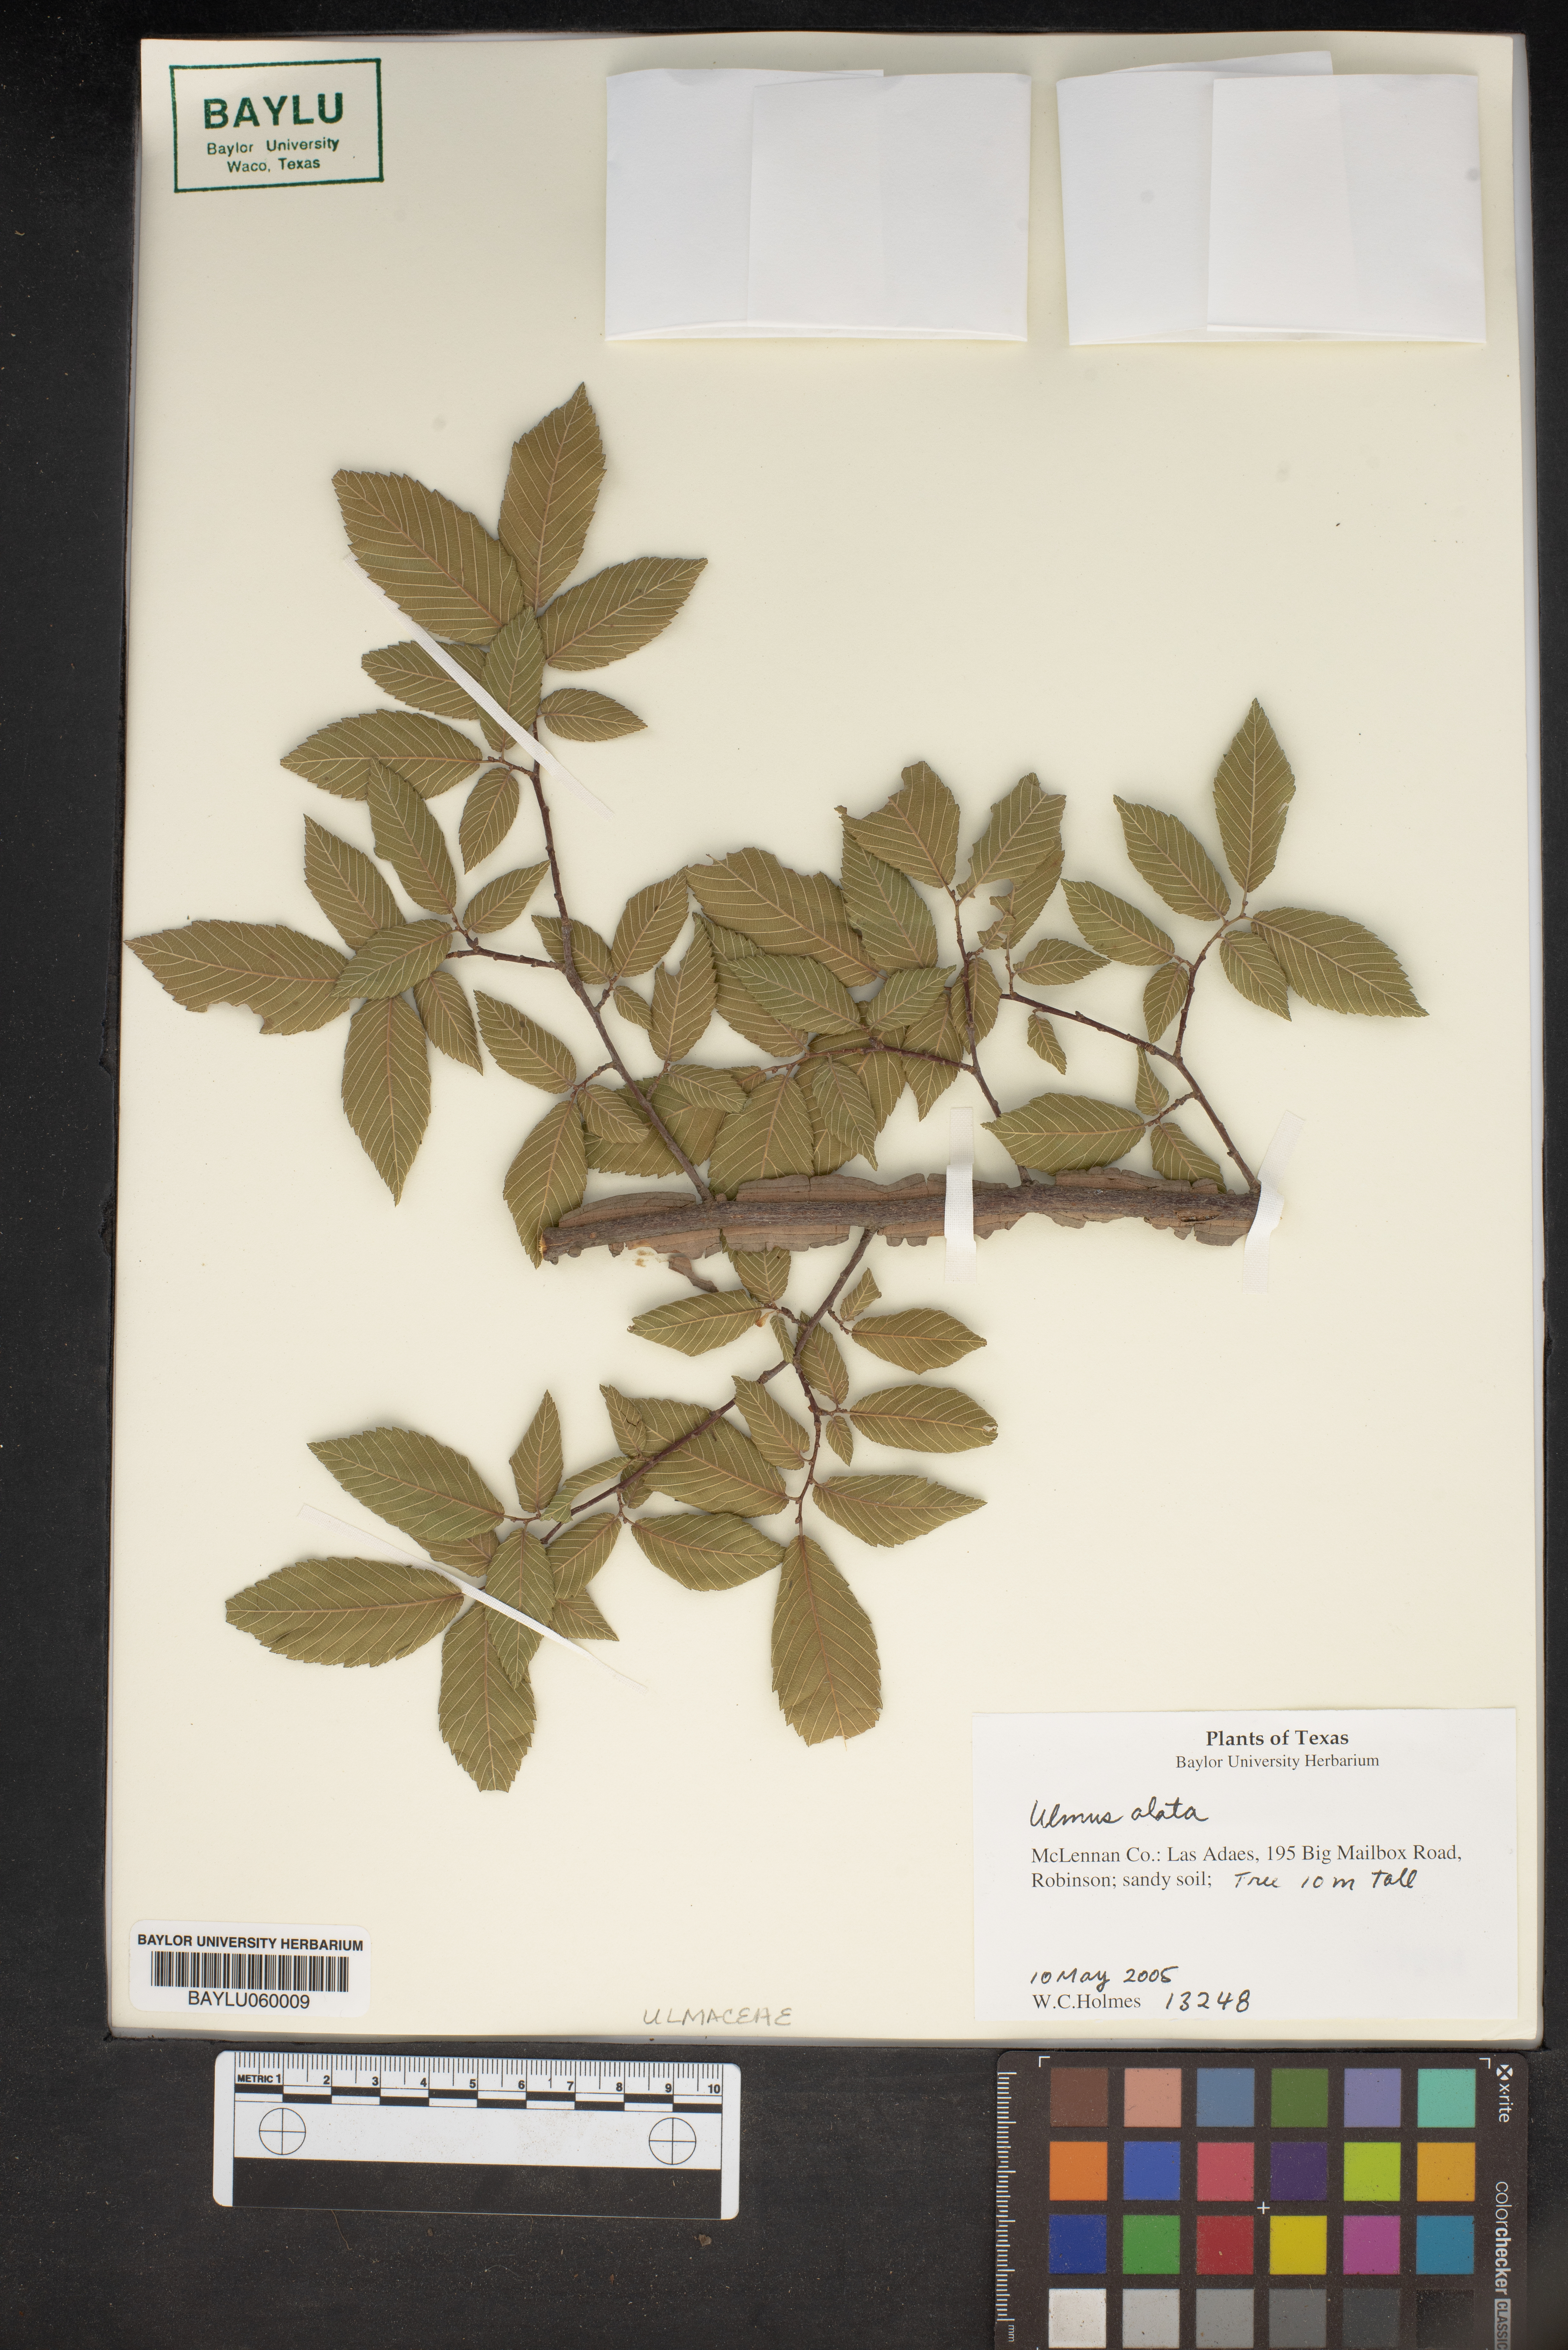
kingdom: Plantae
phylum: Tracheophyta
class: Magnoliopsida
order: Rosales
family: Ulmaceae
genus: Ulmus
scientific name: Ulmus alata
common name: Winged elm
